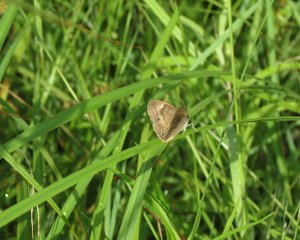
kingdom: Animalia
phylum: Arthropoda
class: Insecta
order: Lepidoptera
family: Nymphalidae
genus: Lethe
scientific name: Lethe eurydice
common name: Eyed Brown
